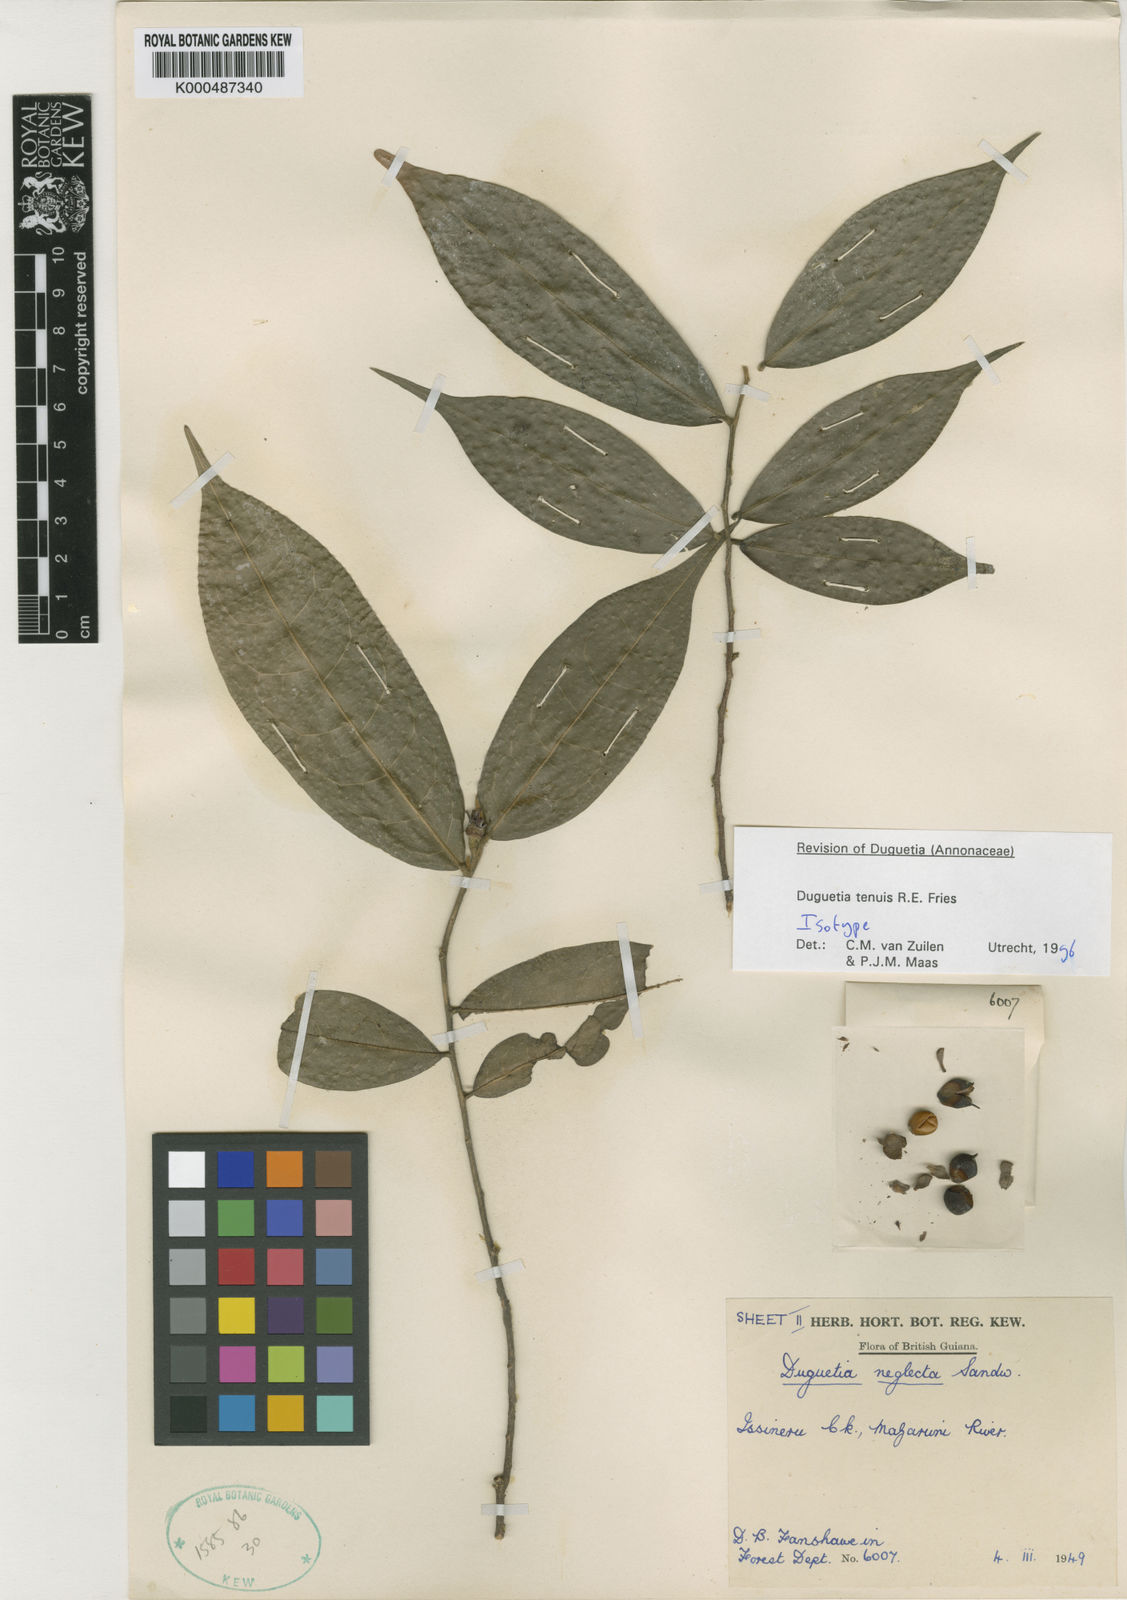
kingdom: Plantae
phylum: Tracheophyta
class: Magnoliopsida
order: Magnoliales
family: Annonaceae
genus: Duguetia
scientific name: Duguetia tenuis
